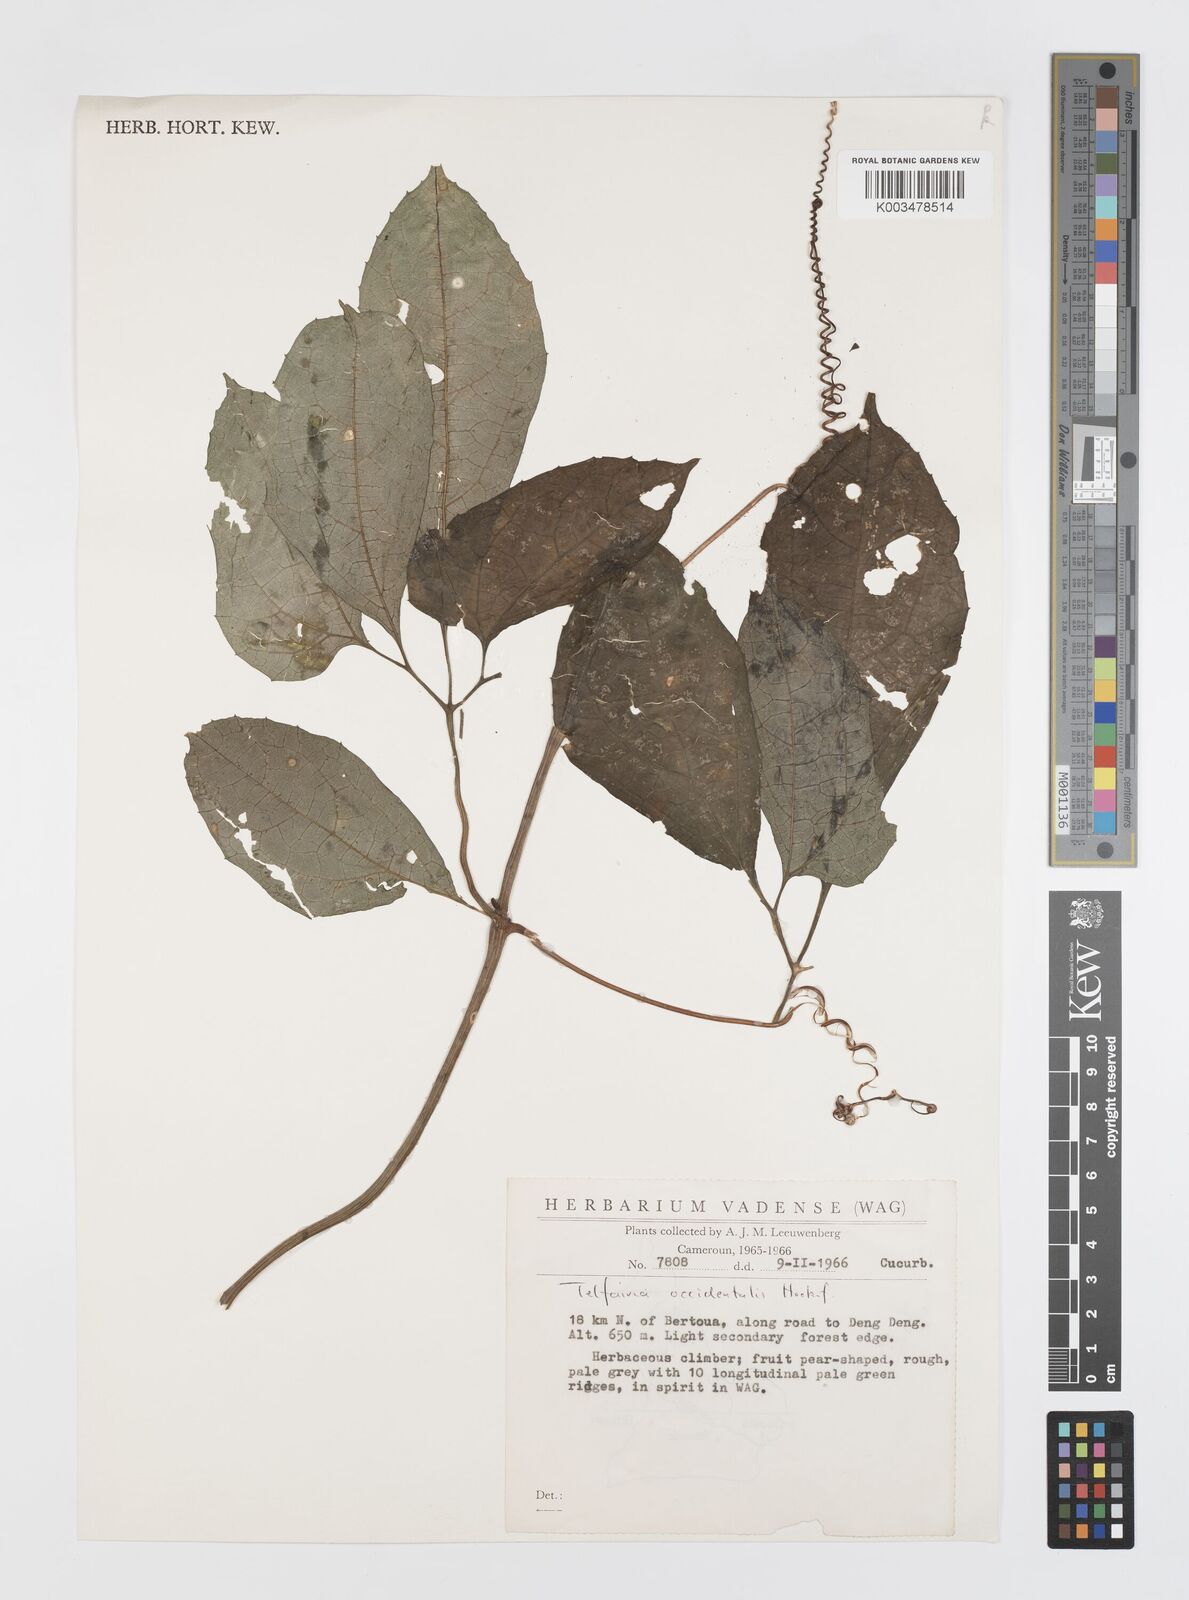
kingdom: Plantae
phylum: Tracheophyta
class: Magnoliopsida
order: Cucurbitales
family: Cucurbitaceae
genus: Telfairia
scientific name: Telfairia occidentalis
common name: Oysternut
